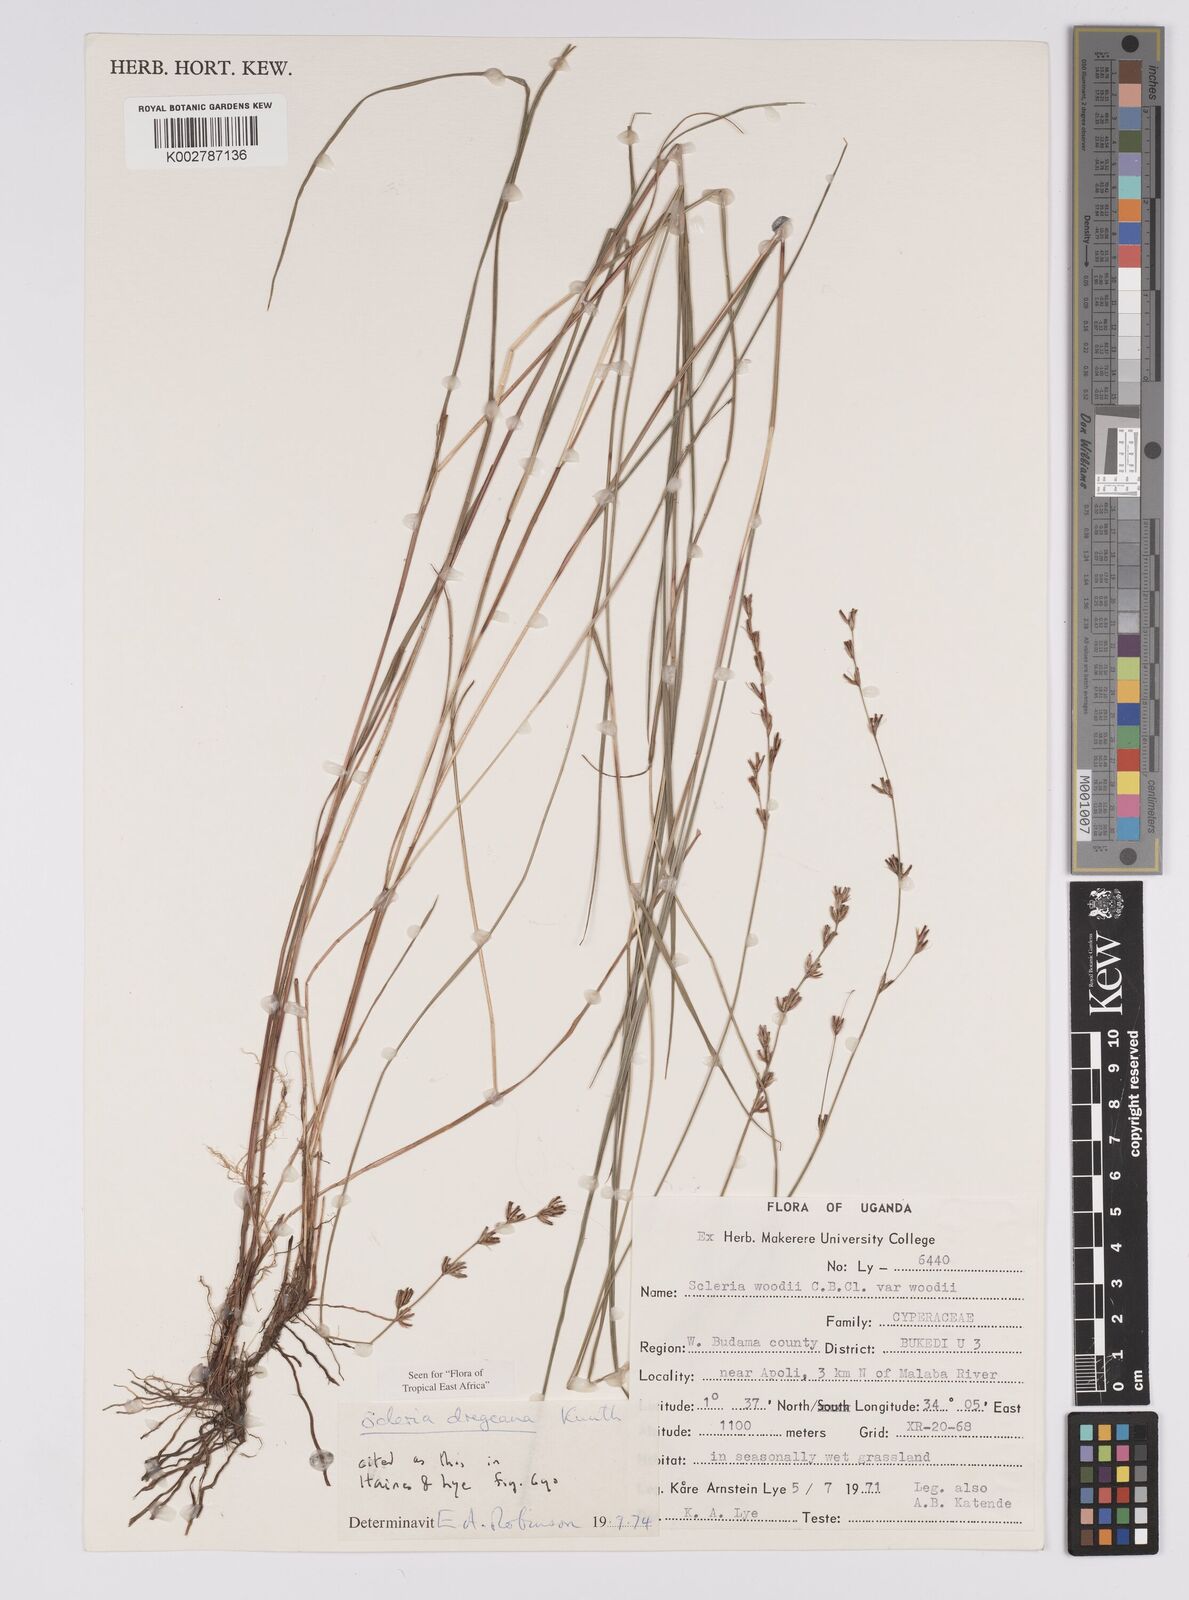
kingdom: Plantae
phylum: Tracheophyta
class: Liliopsida
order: Poales
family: Cyperaceae
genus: Scleria
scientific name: Scleria dregeana
